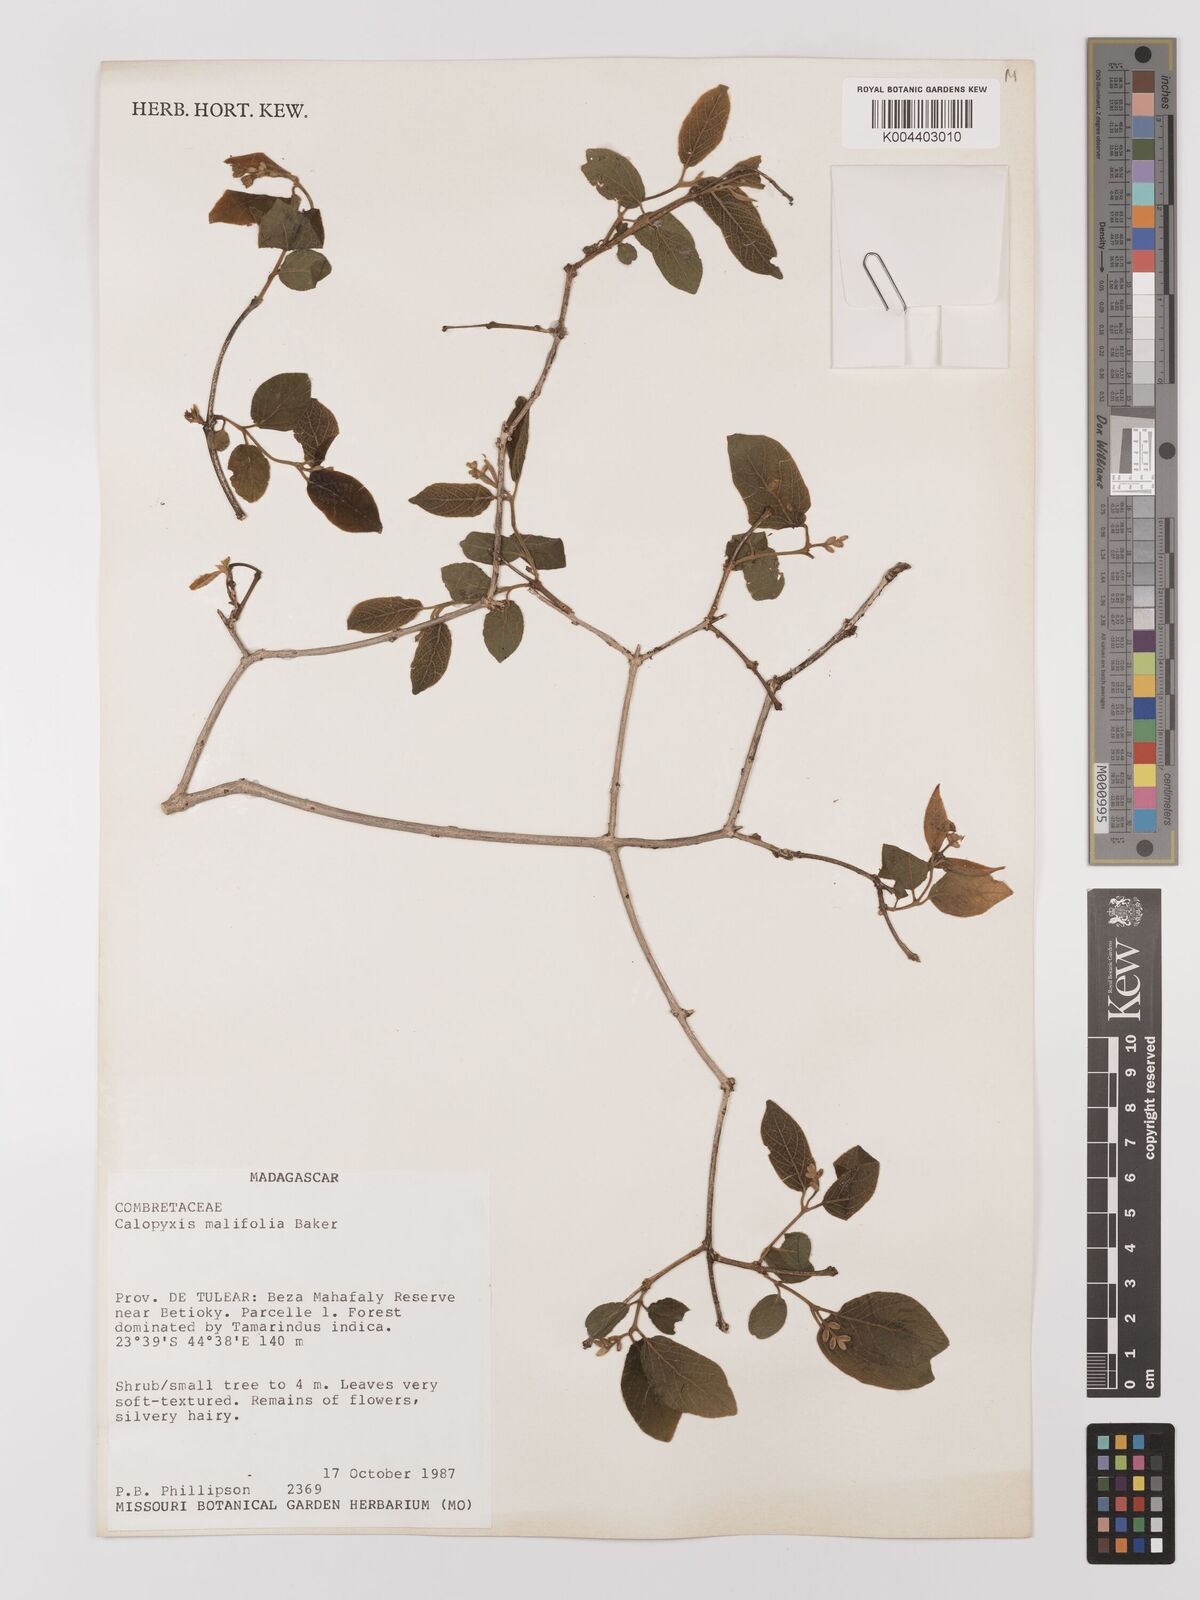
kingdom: Plantae
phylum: Tracheophyta
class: Magnoliopsida
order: Myrtales
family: Combretaceae
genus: Combretum
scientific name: Combretum malifolium
